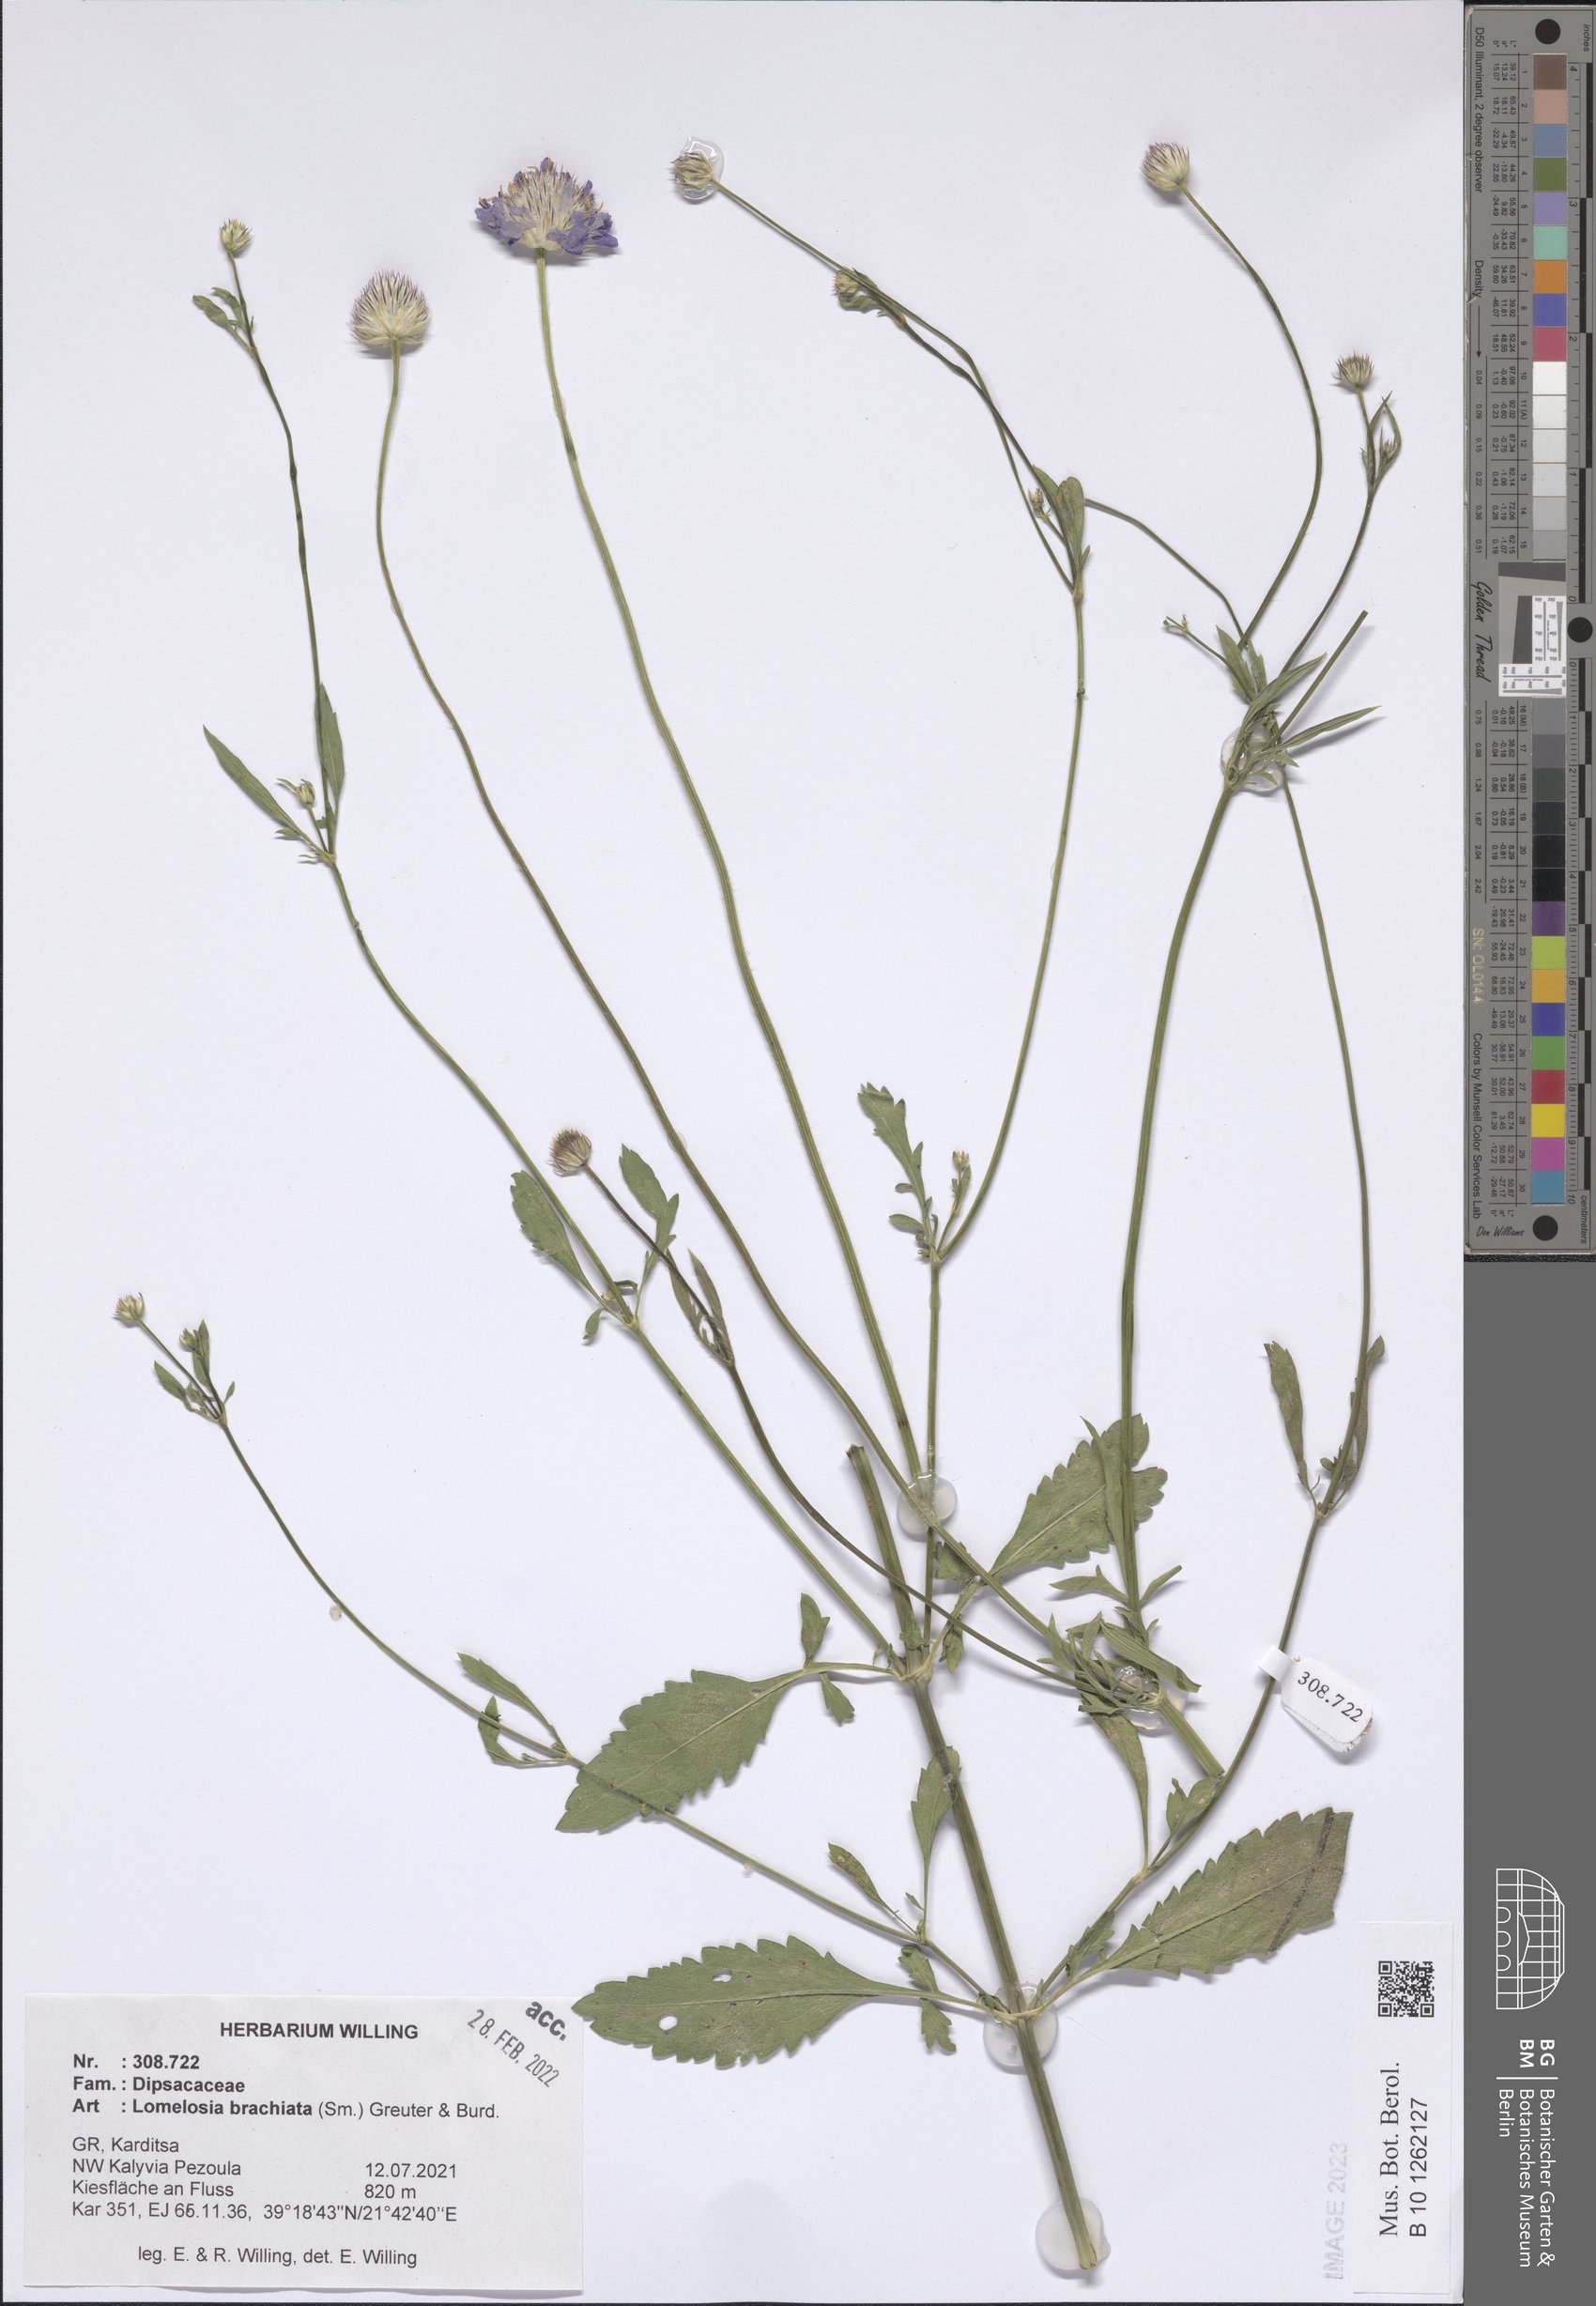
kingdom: Plantae
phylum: Tracheophyta
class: Magnoliopsida
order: Dipsacales
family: Caprifoliaceae
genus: Lomelosia
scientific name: Lomelosia brachiata
